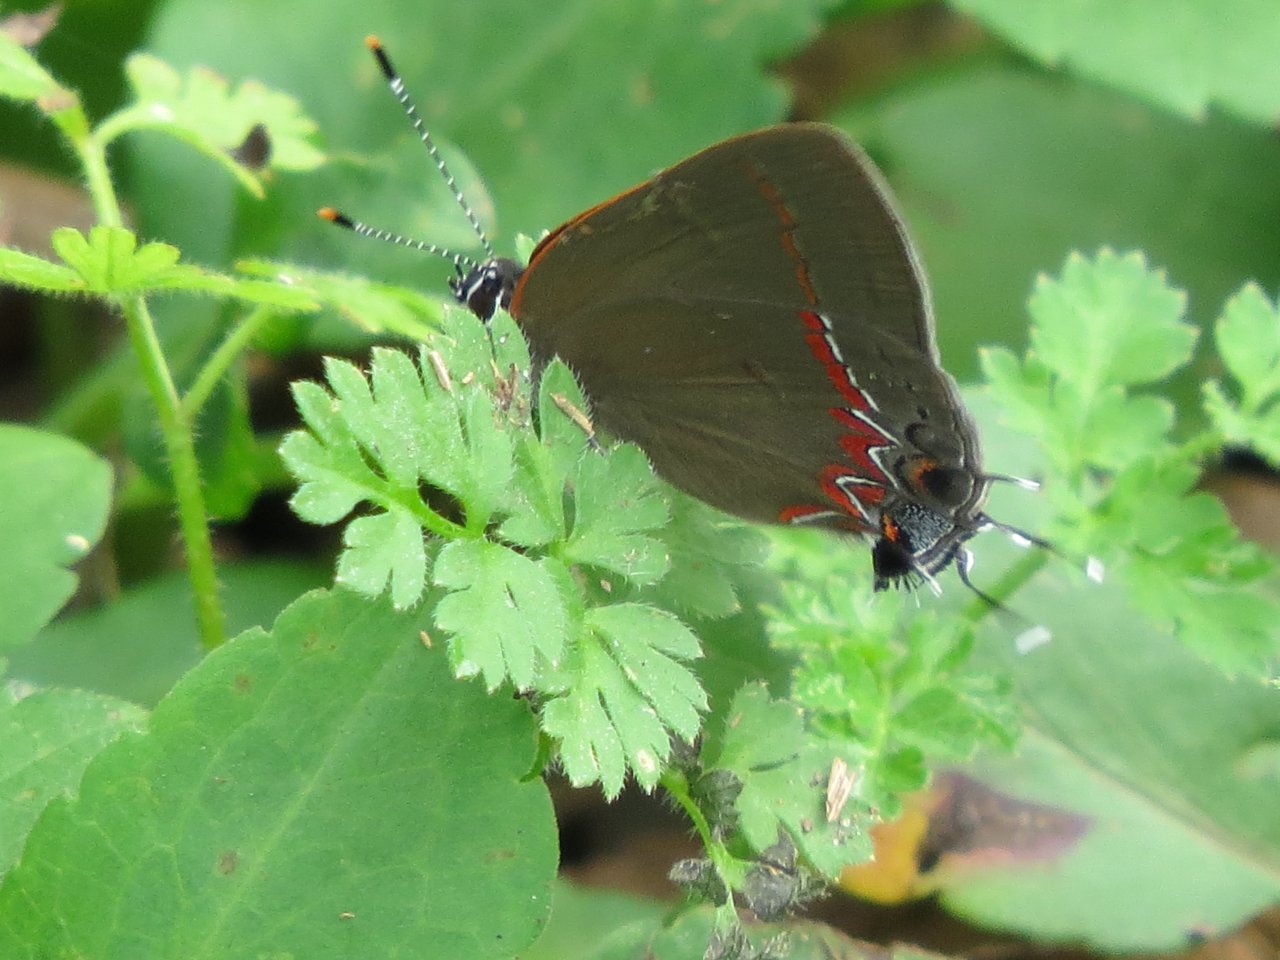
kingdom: Animalia
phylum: Arthropoda
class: Insecta
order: Lepidoptera
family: Lycaenidae
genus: Calycopis
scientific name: Calycopis cecrops
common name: Red-banded Hairstreak
